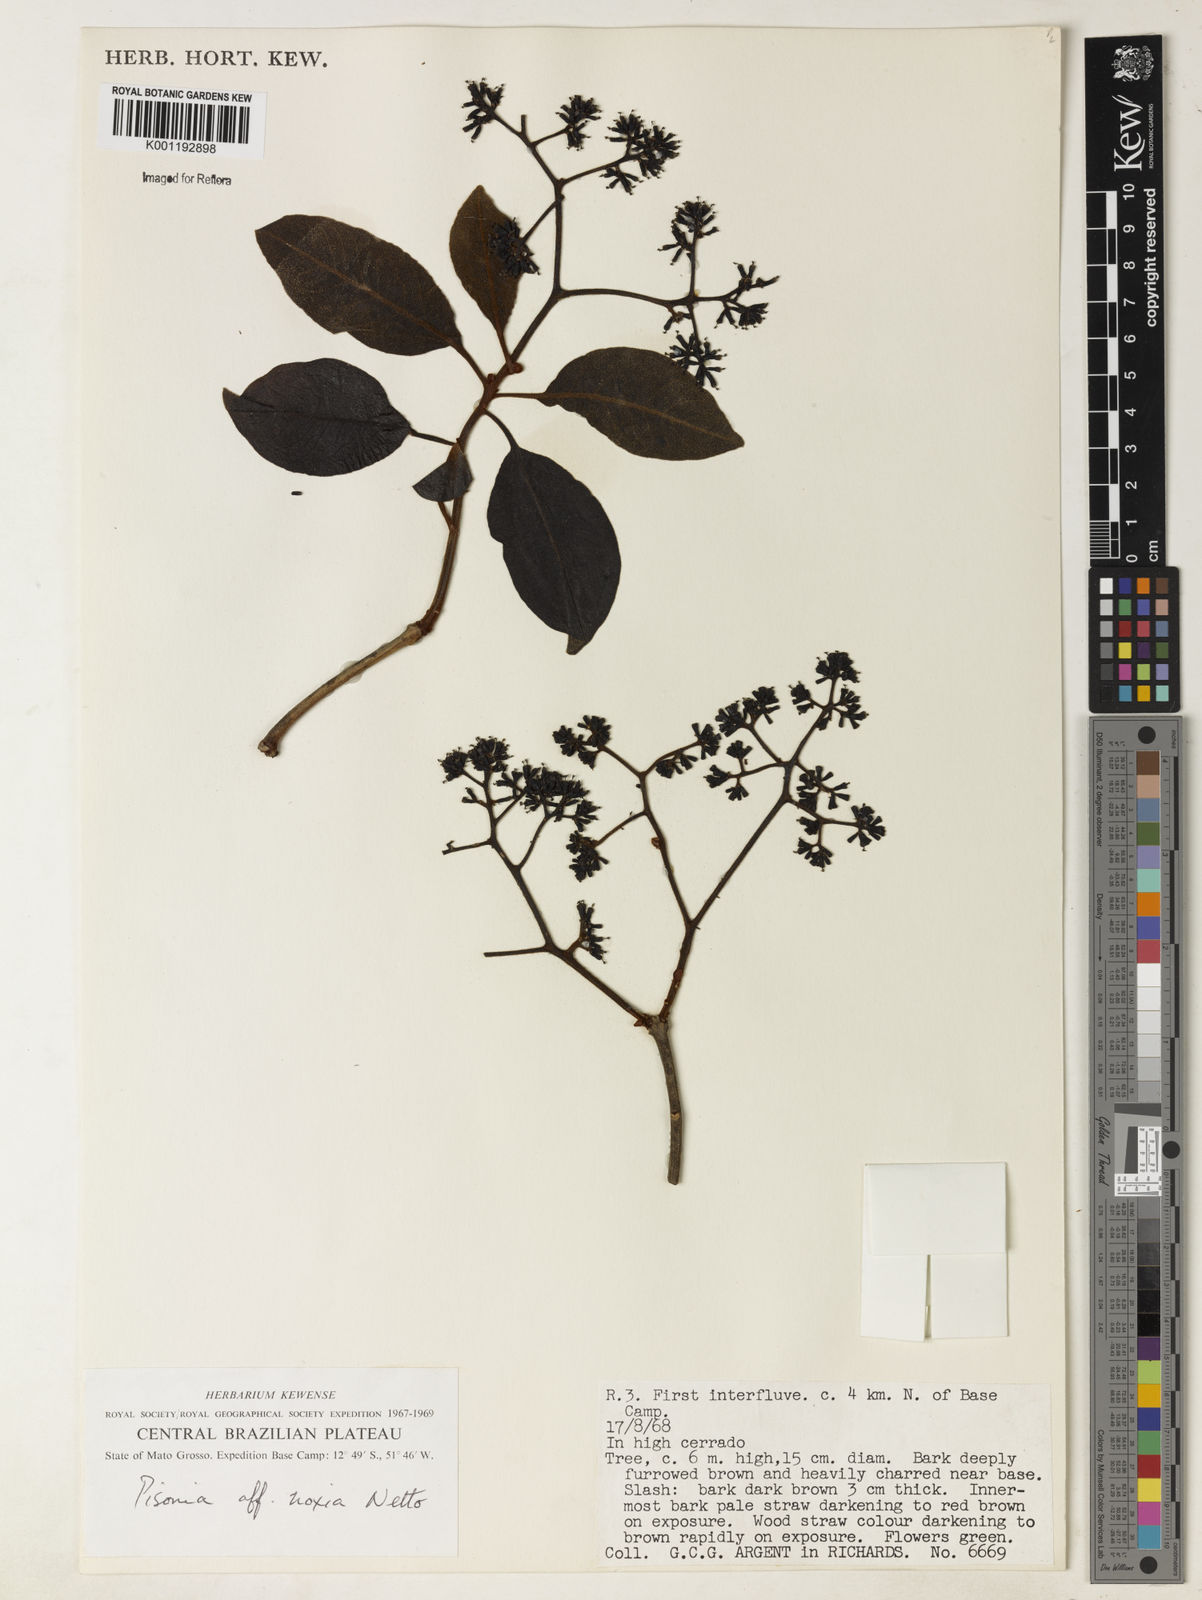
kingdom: Plantae
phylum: Tracheophyta
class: Magnoliopsida
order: Caryophyllales
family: Nyctaginaceae
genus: Guapira
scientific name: Guapira noxia
